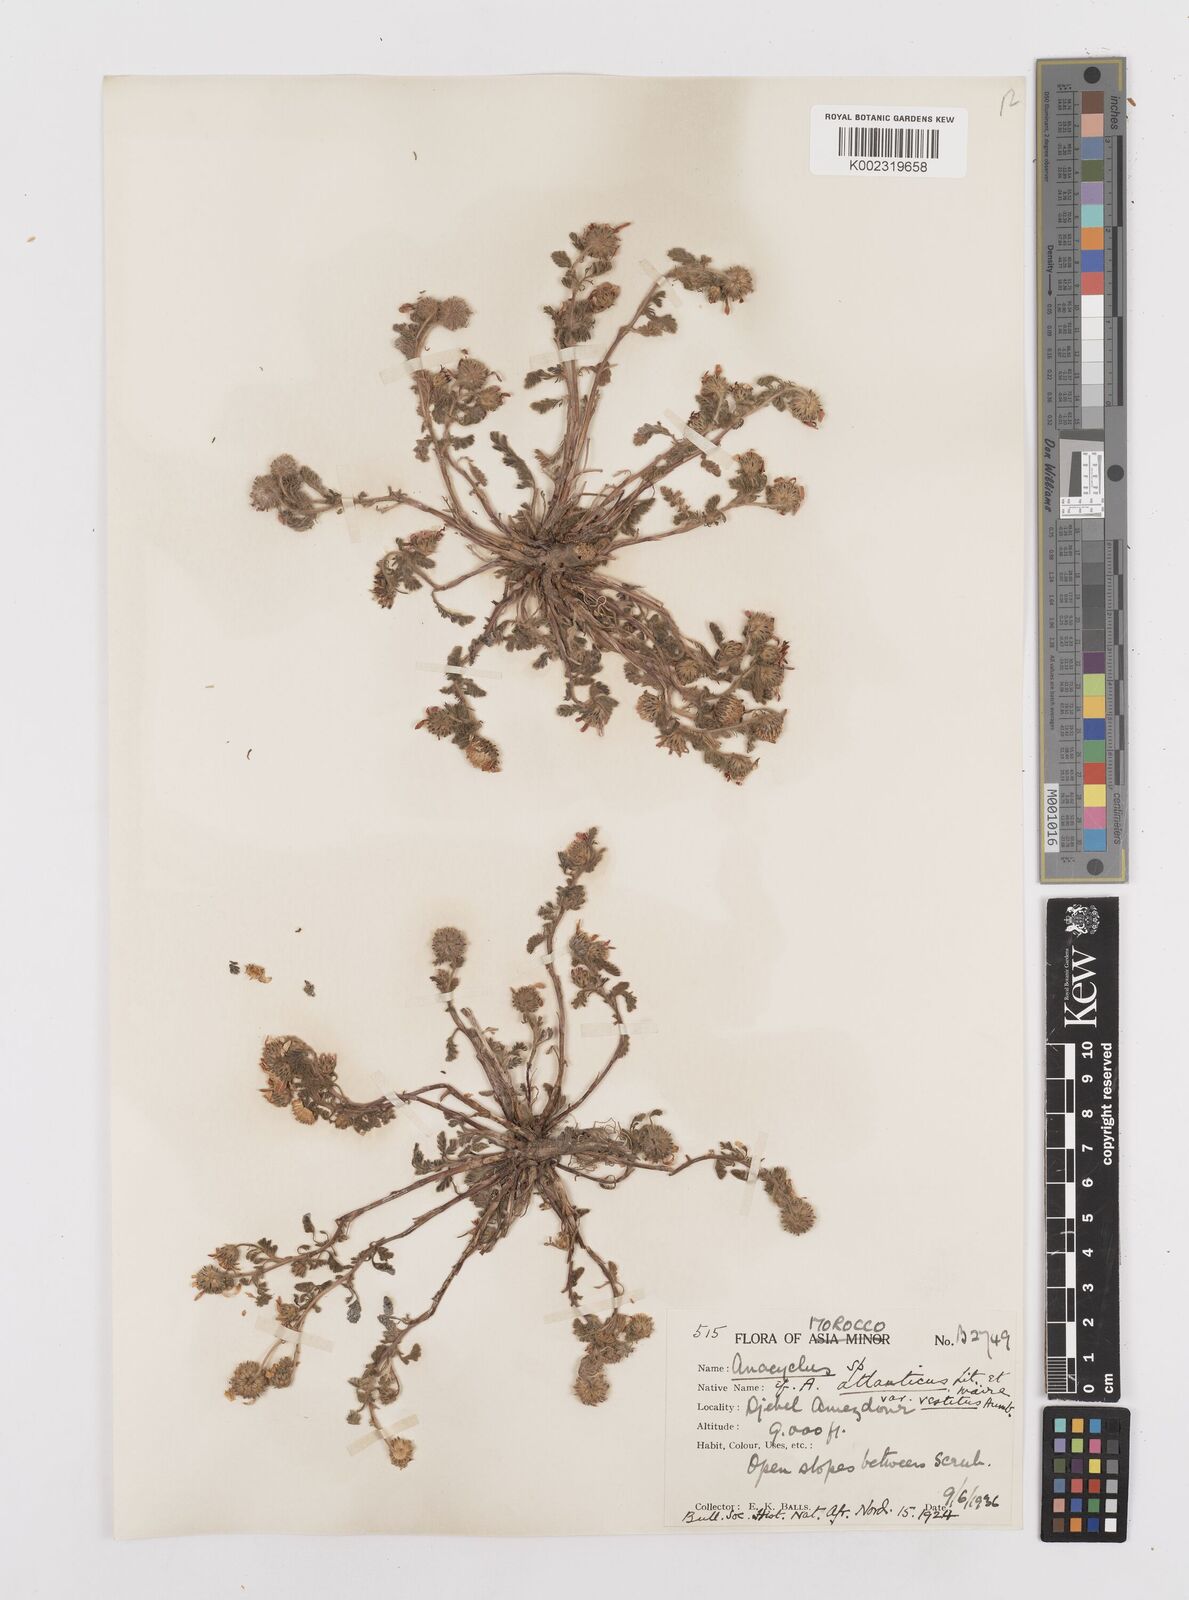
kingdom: Plantae
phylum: Tracheophyta
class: Magnoliopsida
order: Asterales
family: Asteraceae
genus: Heliocauta
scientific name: Heliocauta atlantica
